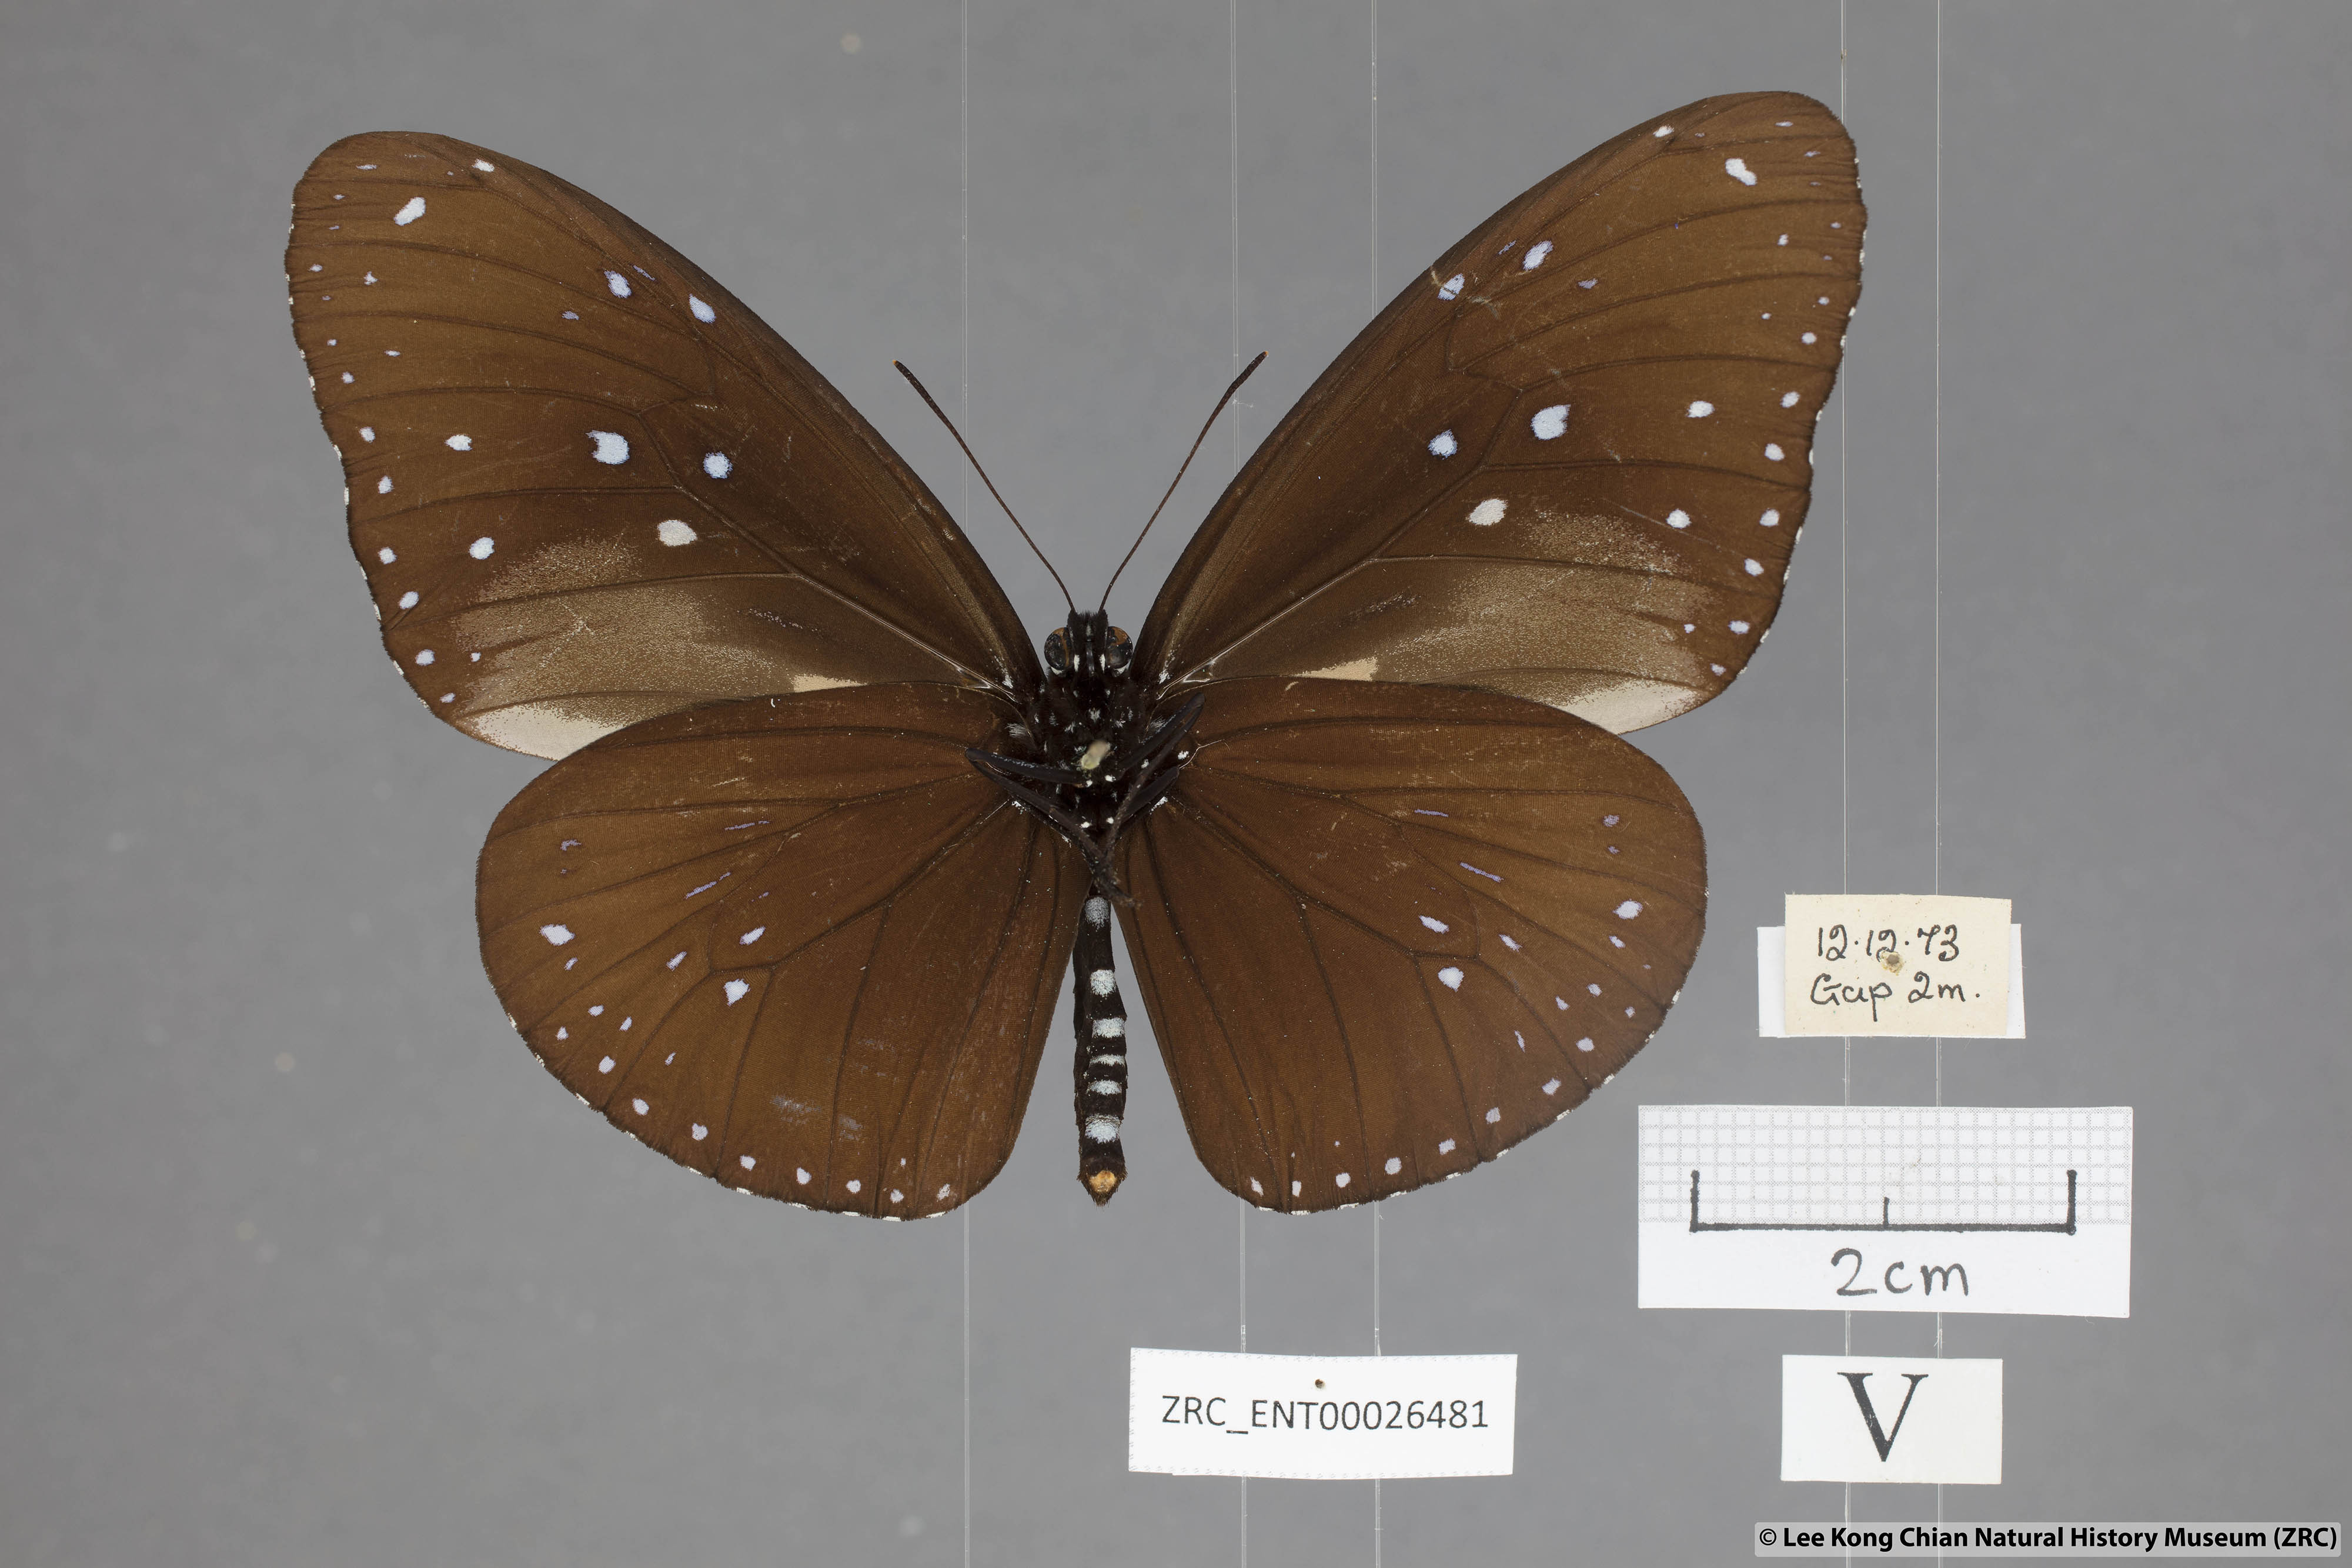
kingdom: Animalia
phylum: Arthropoda
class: Insecta
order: Lepidoptera
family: Nymphalidae
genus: Euploea
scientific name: Euploea mulciber
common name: Striped blue crow butterfly
